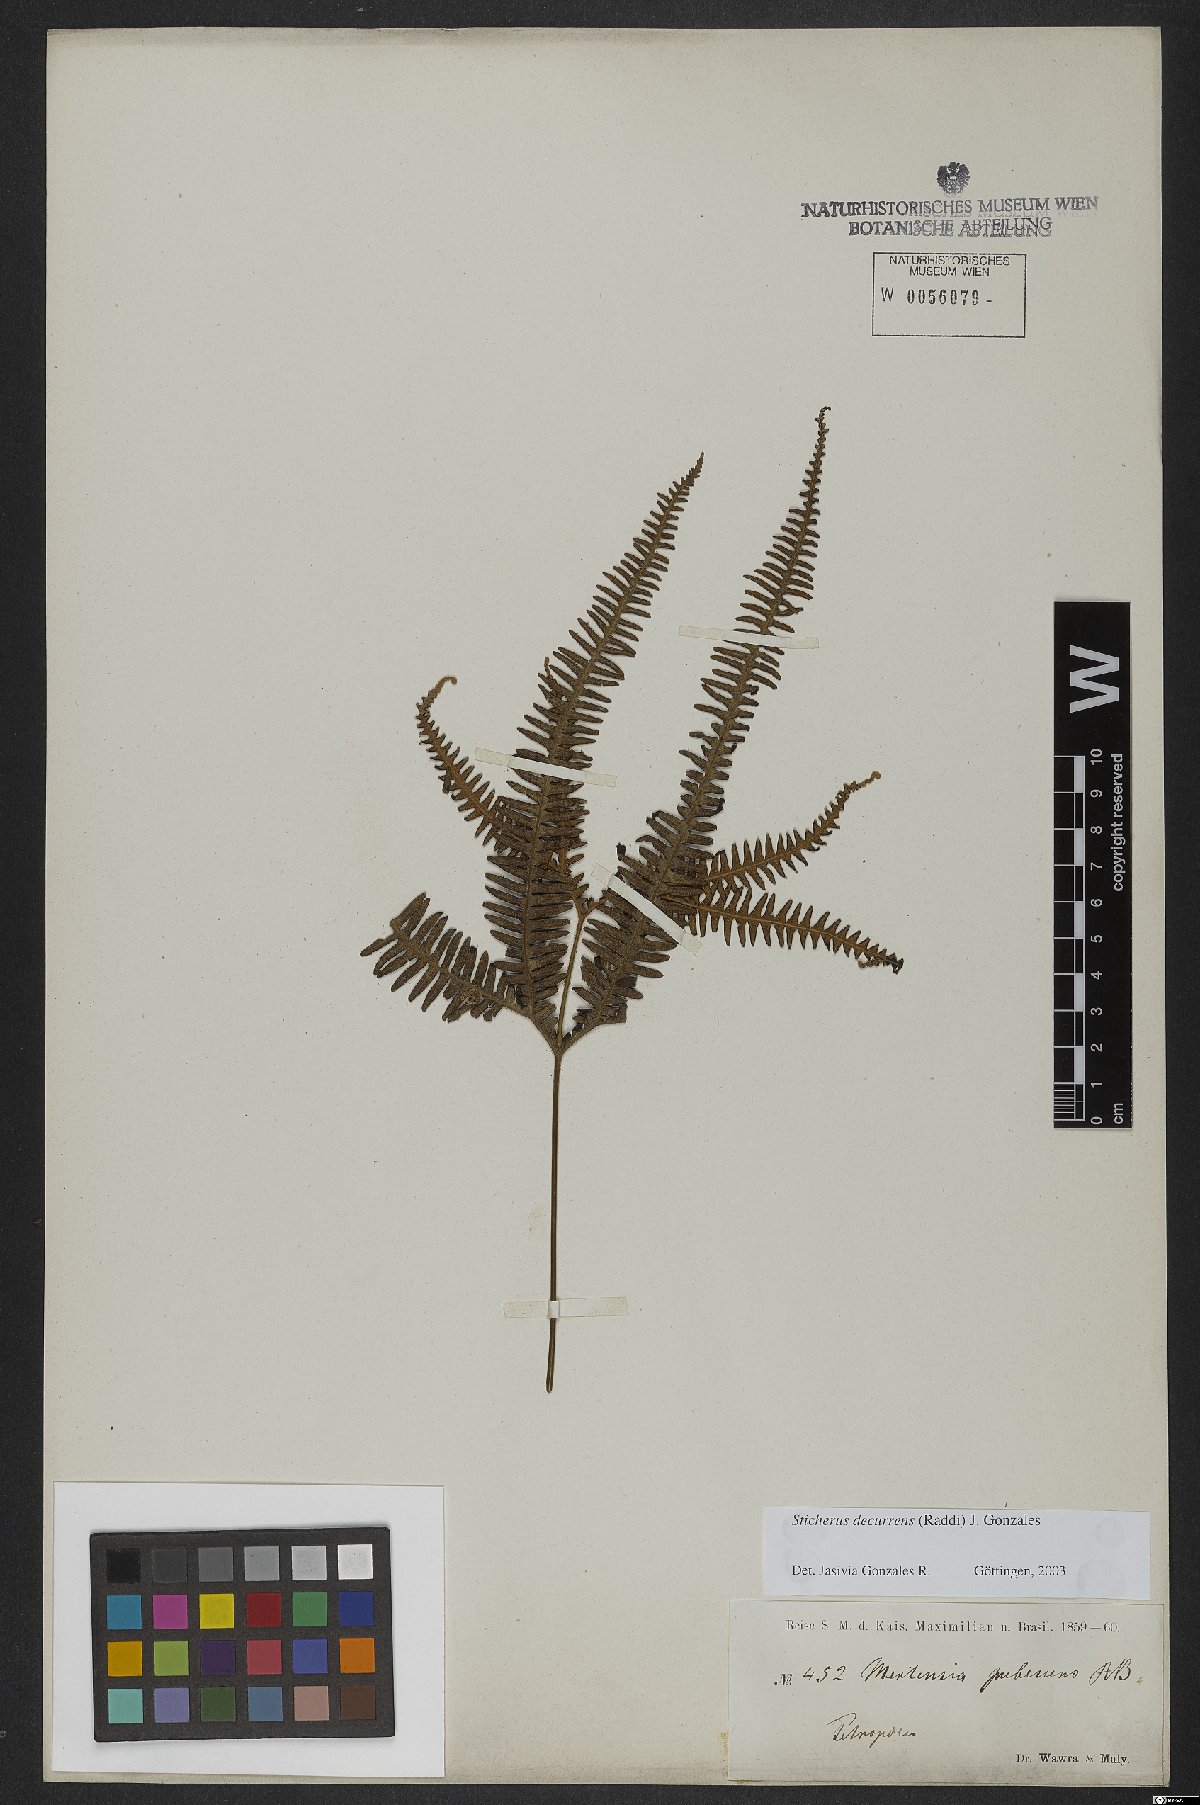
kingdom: Plantae
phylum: Tracheophyta
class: Polypodiopsida
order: Gleicheniales
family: Gleicheniaceae
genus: Sticherus
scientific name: Sticherus decurrens
